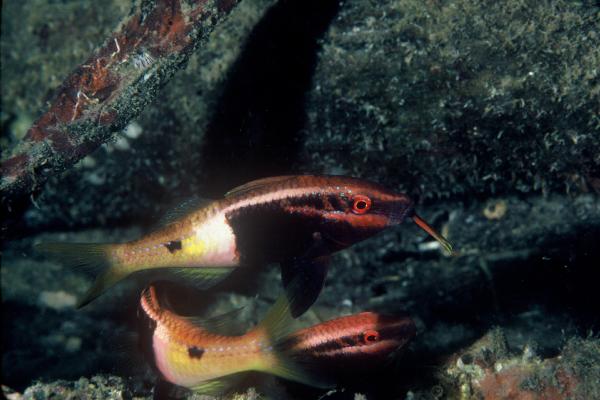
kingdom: Animalia
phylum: Chordata
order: Perciformes
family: Mullidae
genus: Parupeneus
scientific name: Parupeneus barberinoides
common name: Half-and-half goatfish
